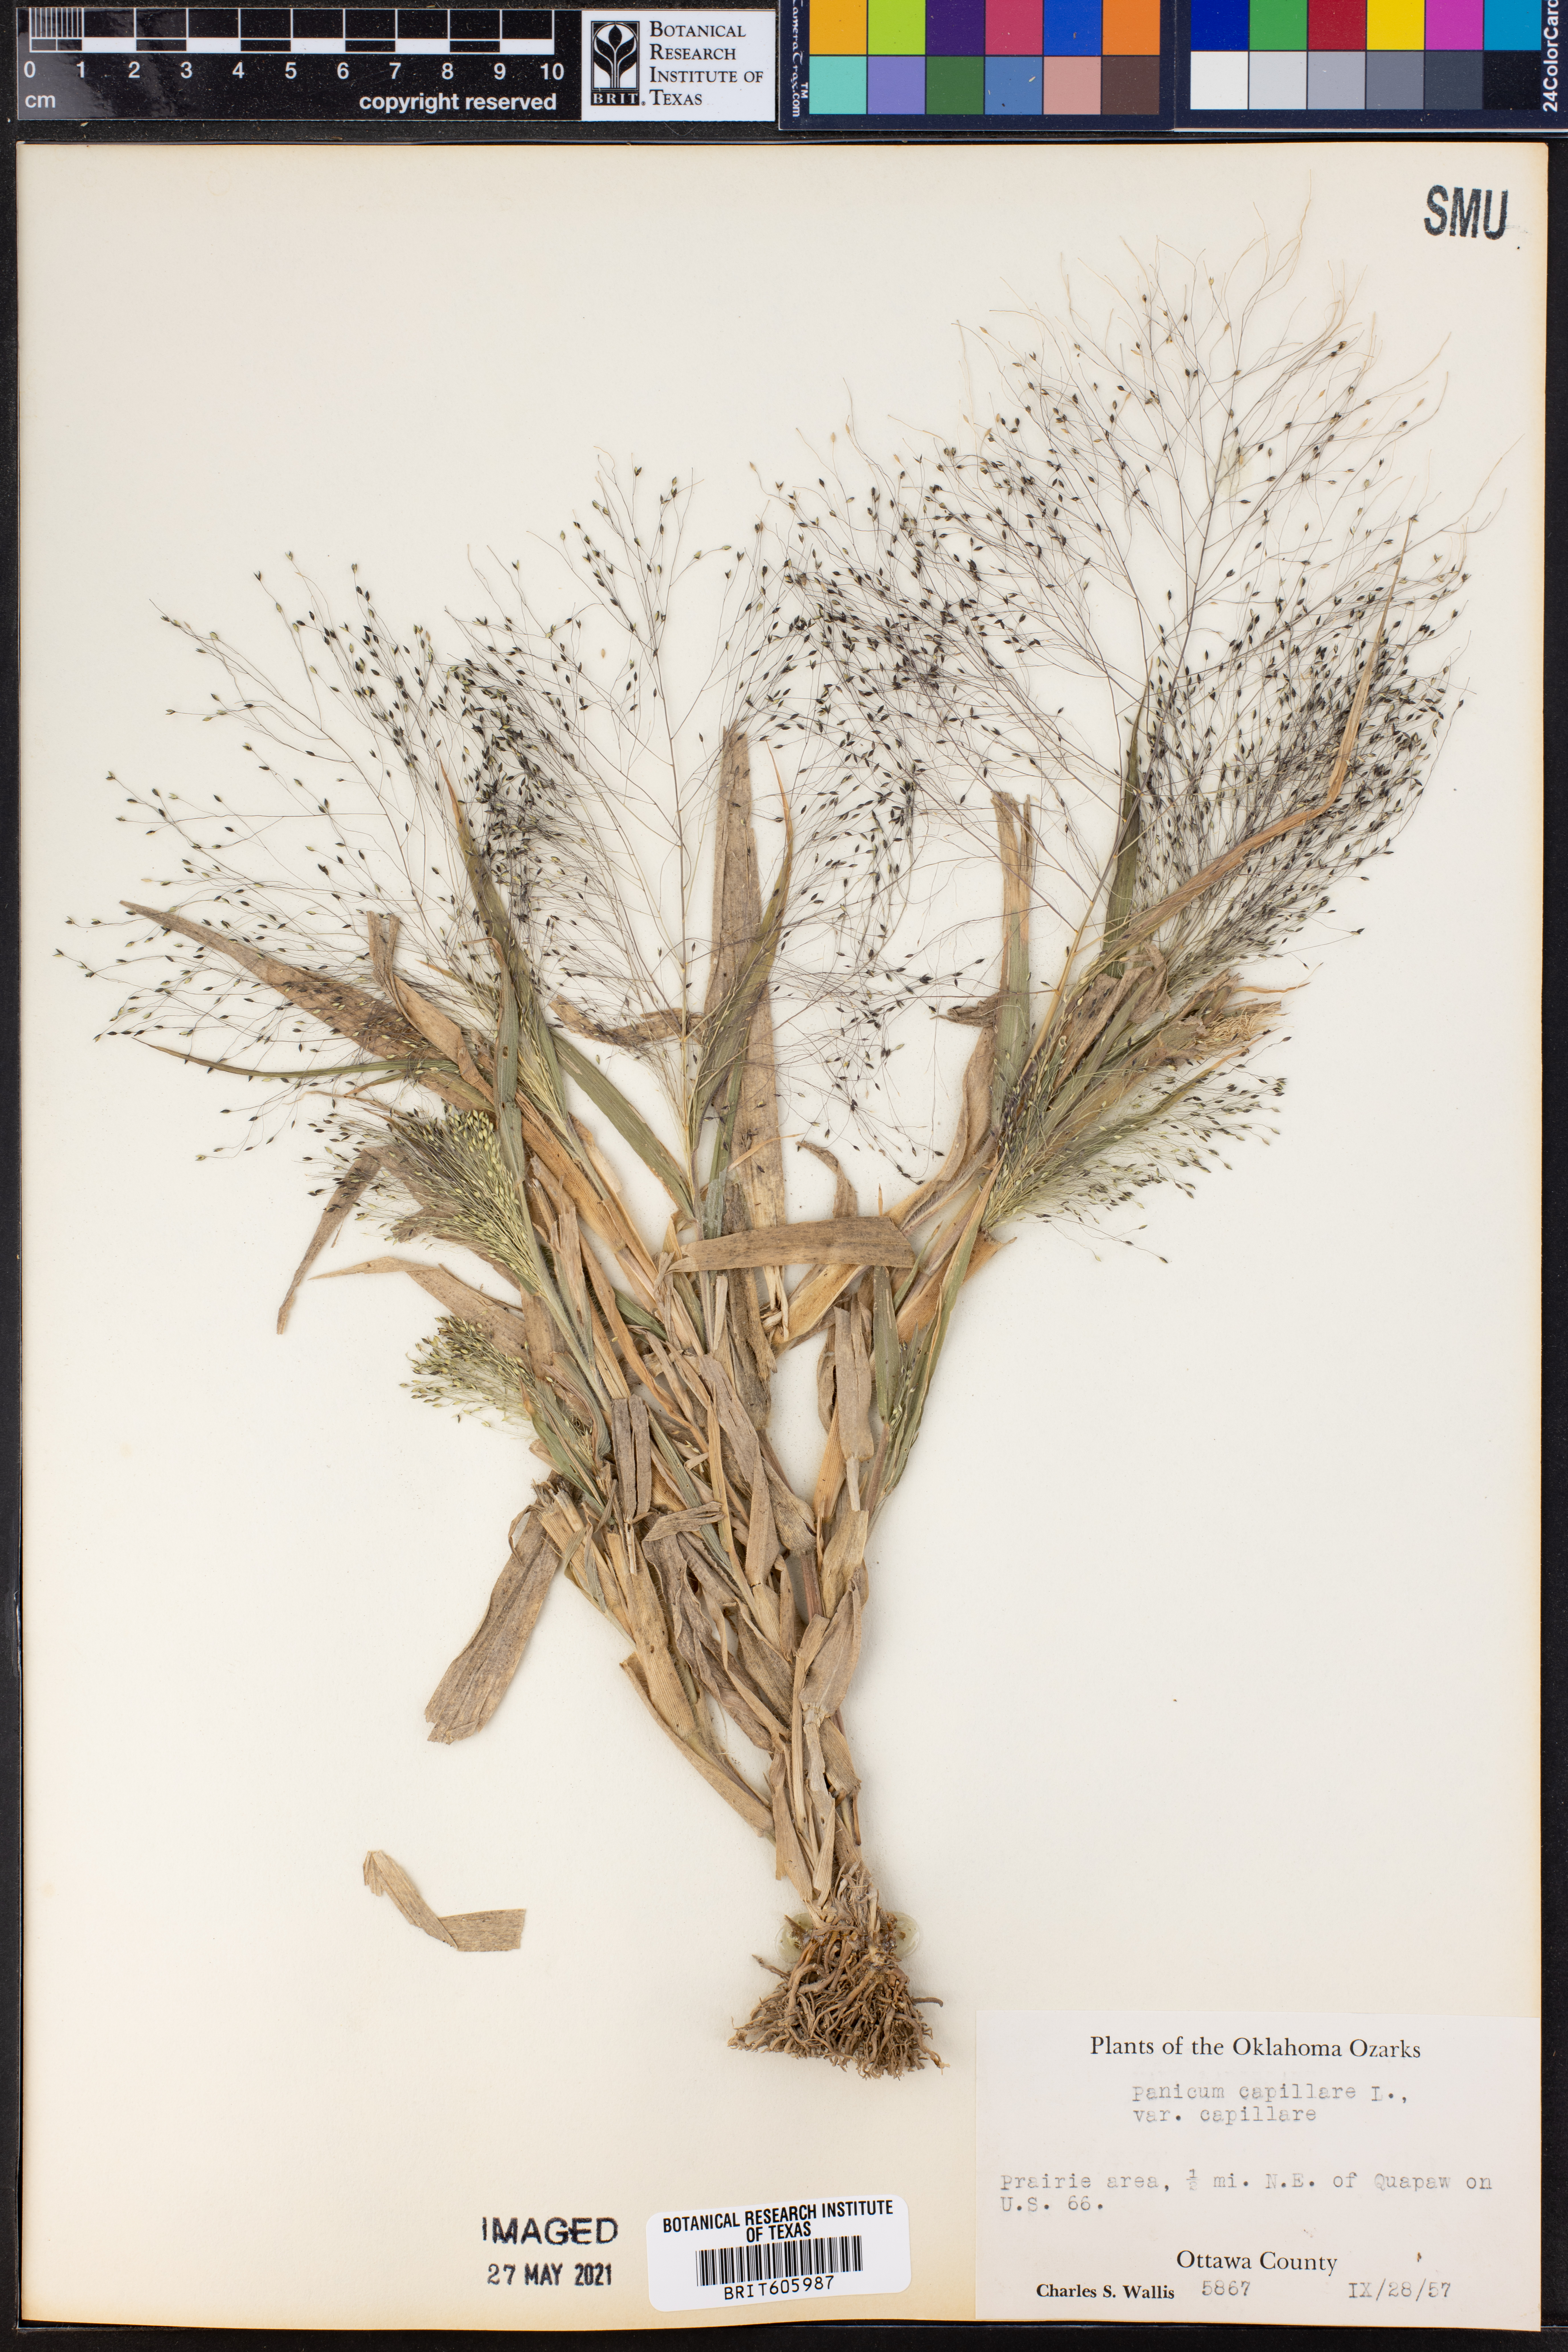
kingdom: Plantae
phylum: Tracheophyta
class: Liliopsida
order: Poales
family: Poaceae
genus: Panicum
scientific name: Panicum capillare
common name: Witch-grass
